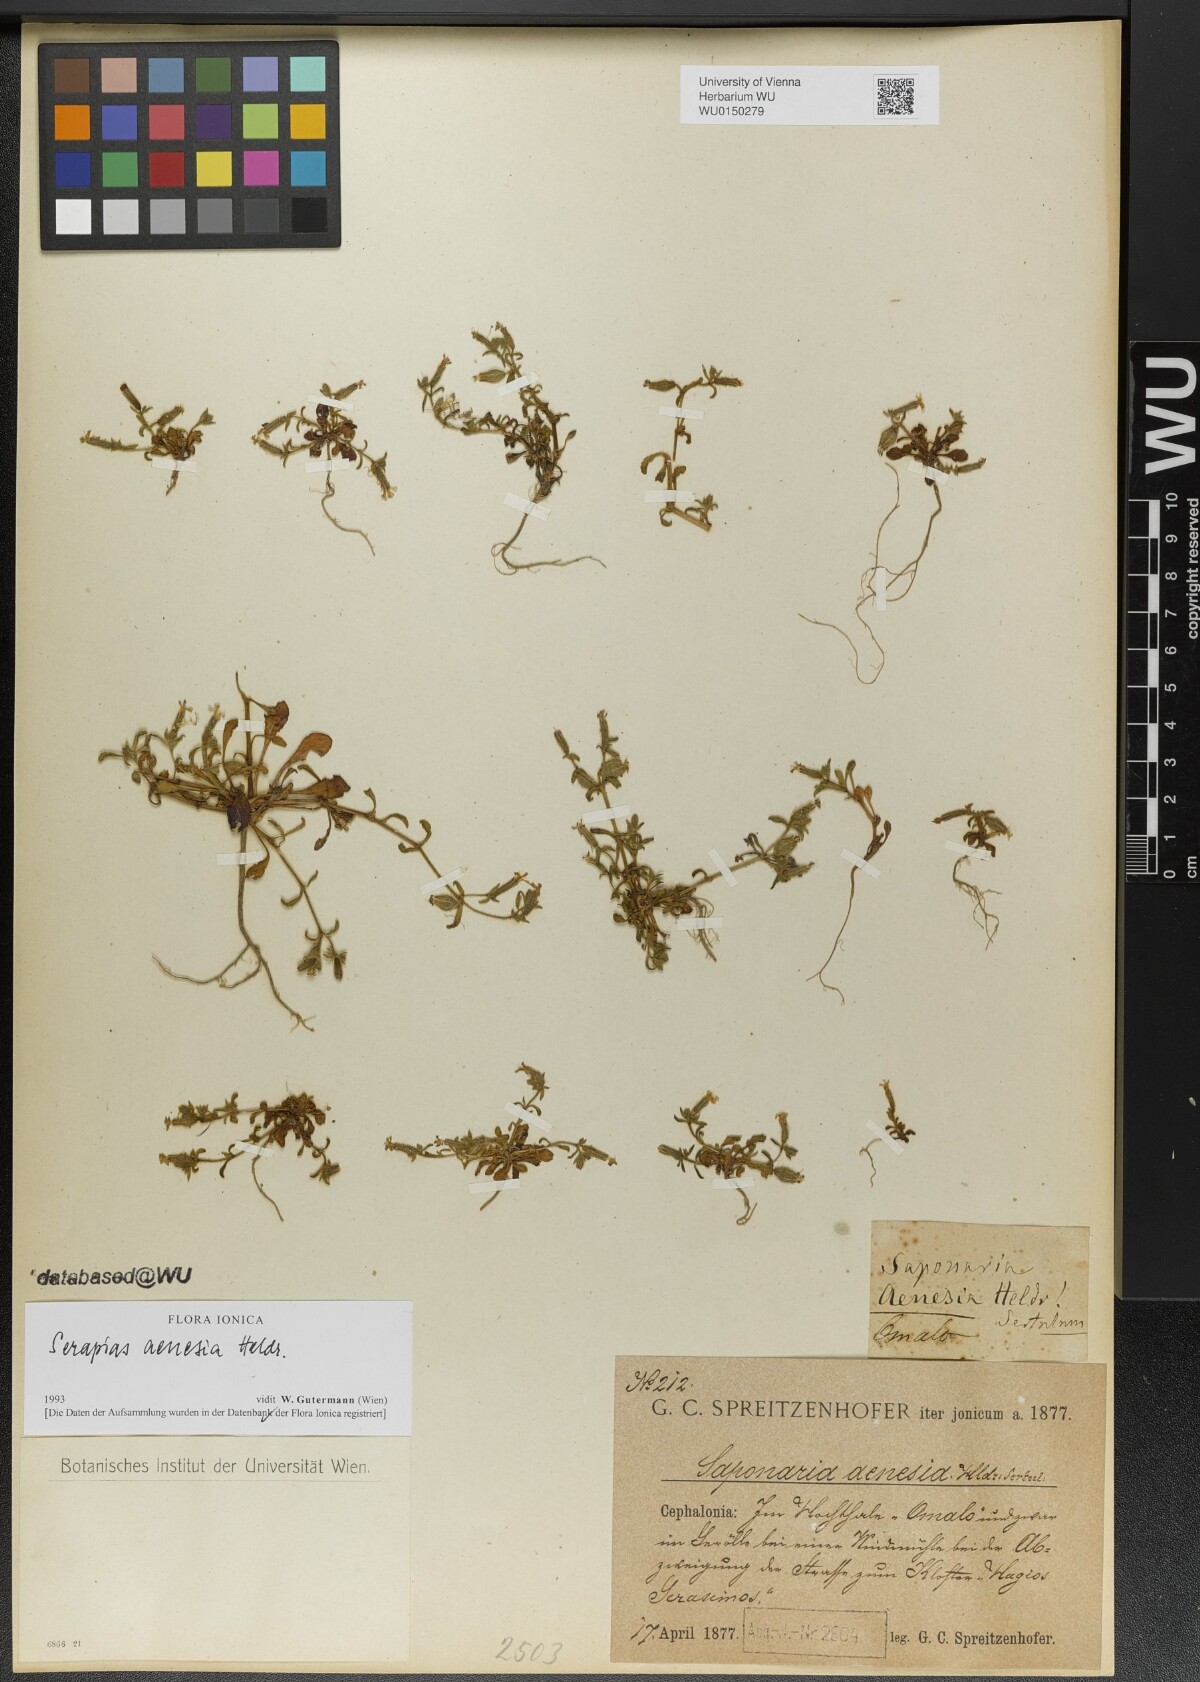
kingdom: Plantae
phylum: Tracheophyta
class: Magnoliopsida
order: Caryophyllales
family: Caryophyllaceae
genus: Saponaria
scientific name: Saponaria aenesia
